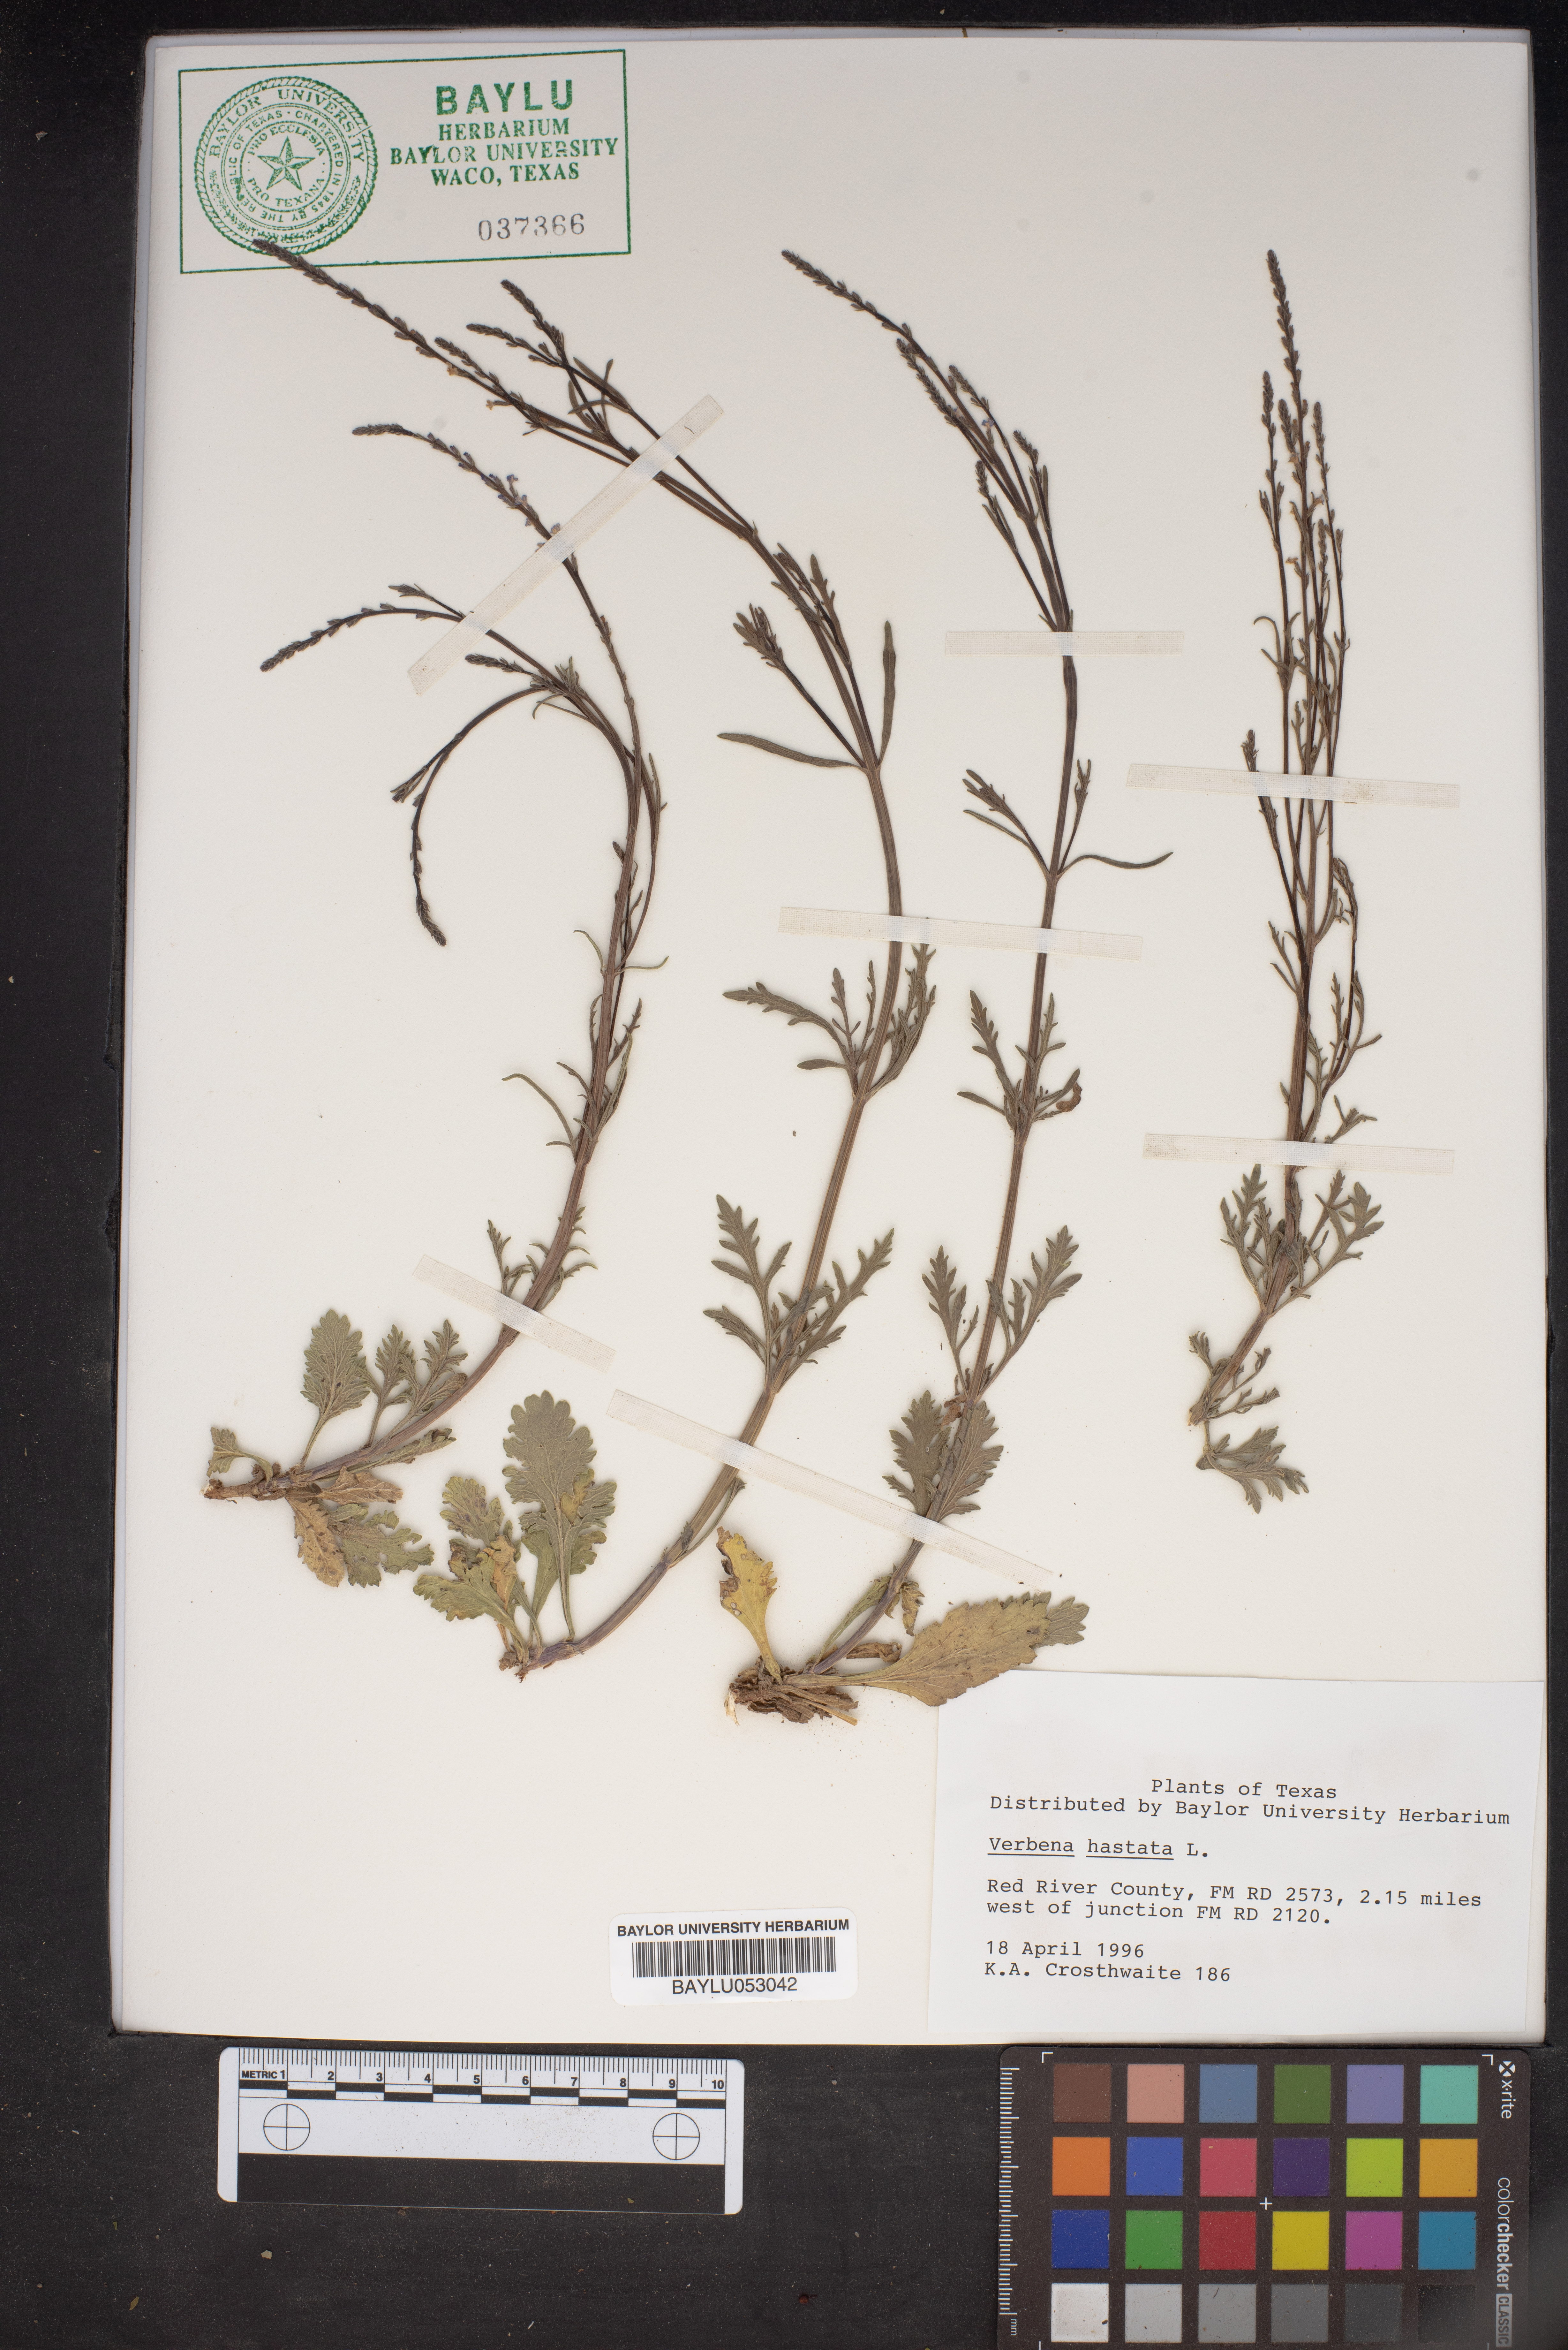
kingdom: Plantae
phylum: Tracheophyta
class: Magnoliopsida
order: Lamiales
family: Verbenaceae
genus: Verbena
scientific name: Verbena hastata
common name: American blue vervain
